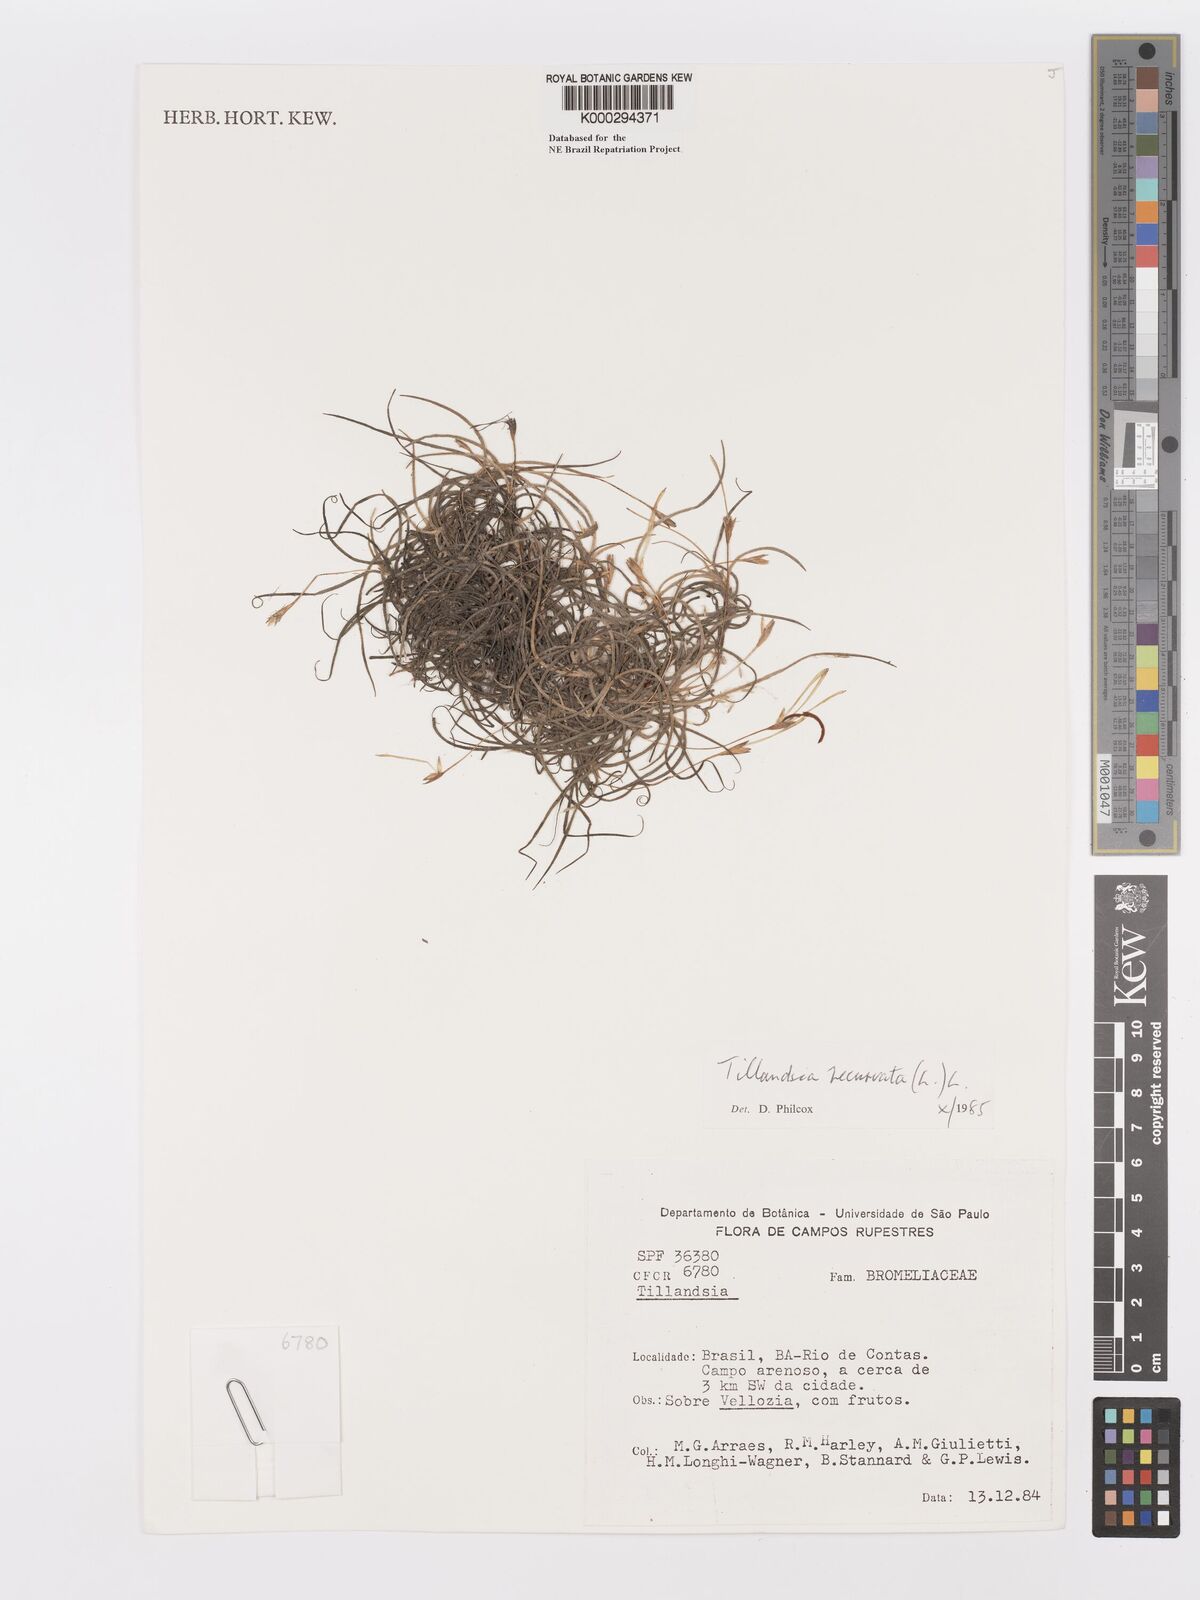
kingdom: Plantae
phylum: Tracheophyta
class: Liliopsida
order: Poales
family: Bromeliaceae
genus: Tillandsia
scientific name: Tillandsia recurvata
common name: Small ballmoss
